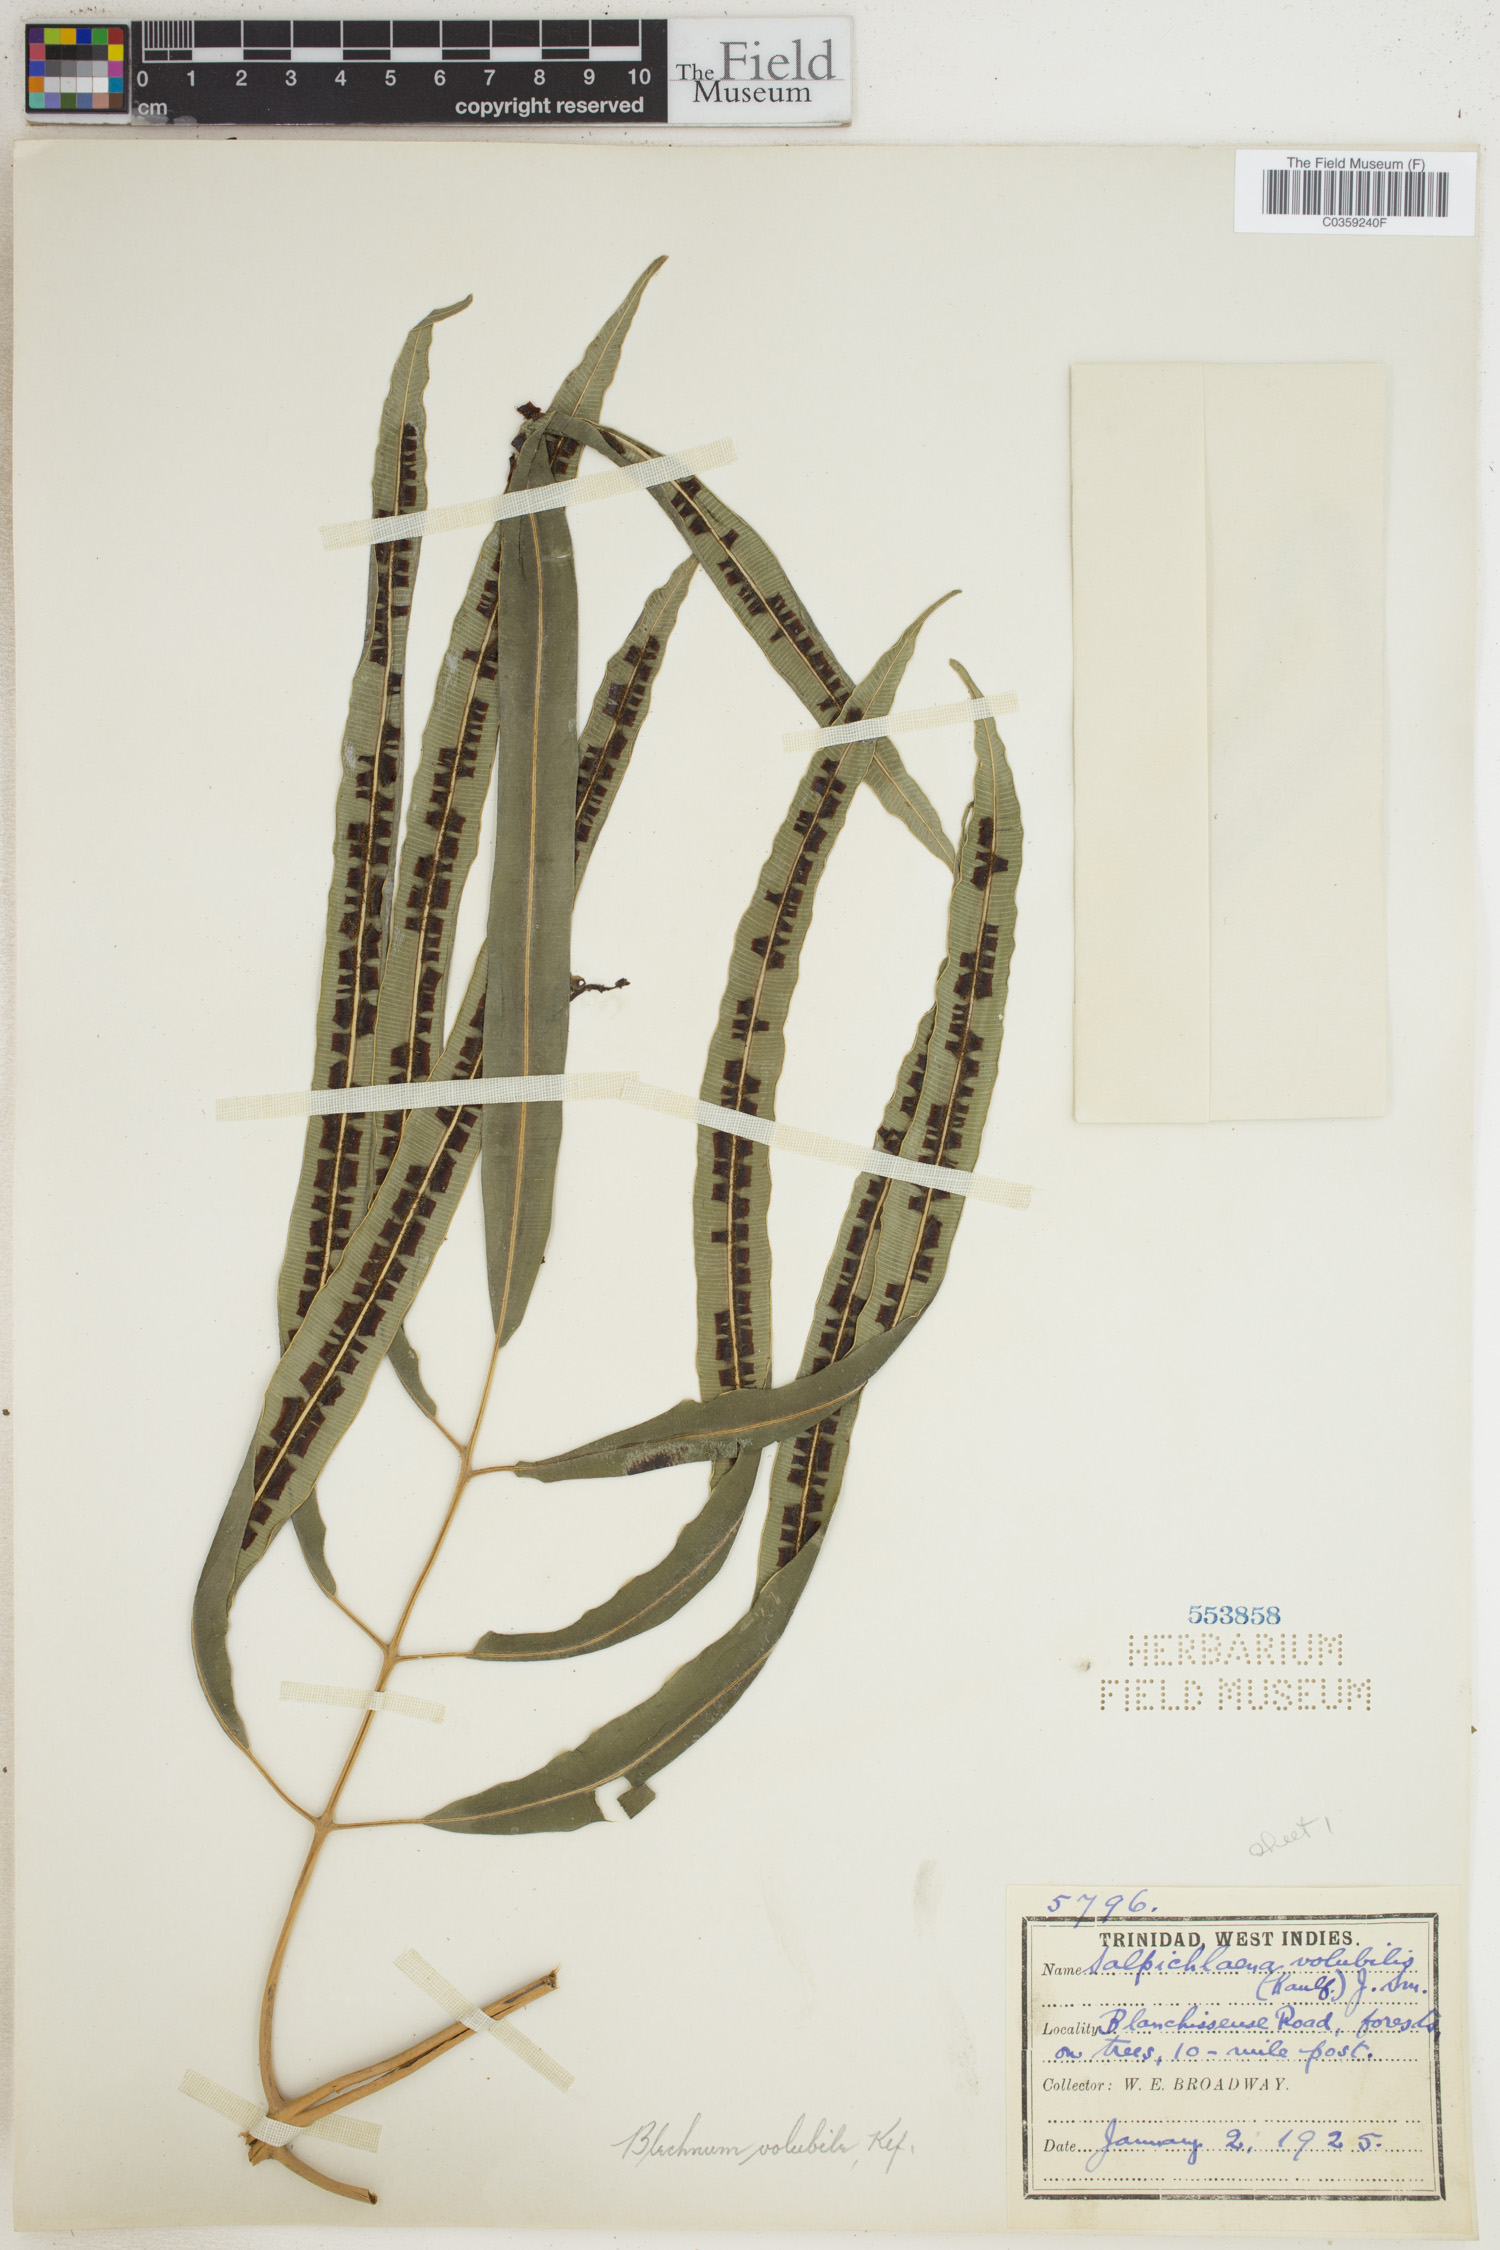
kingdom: Plantae
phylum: Tracheophyta
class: Polypodiopsida
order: Polypodiales
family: Blechnaceae
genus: Salpichlaena
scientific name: Salpichlaena volubilis
